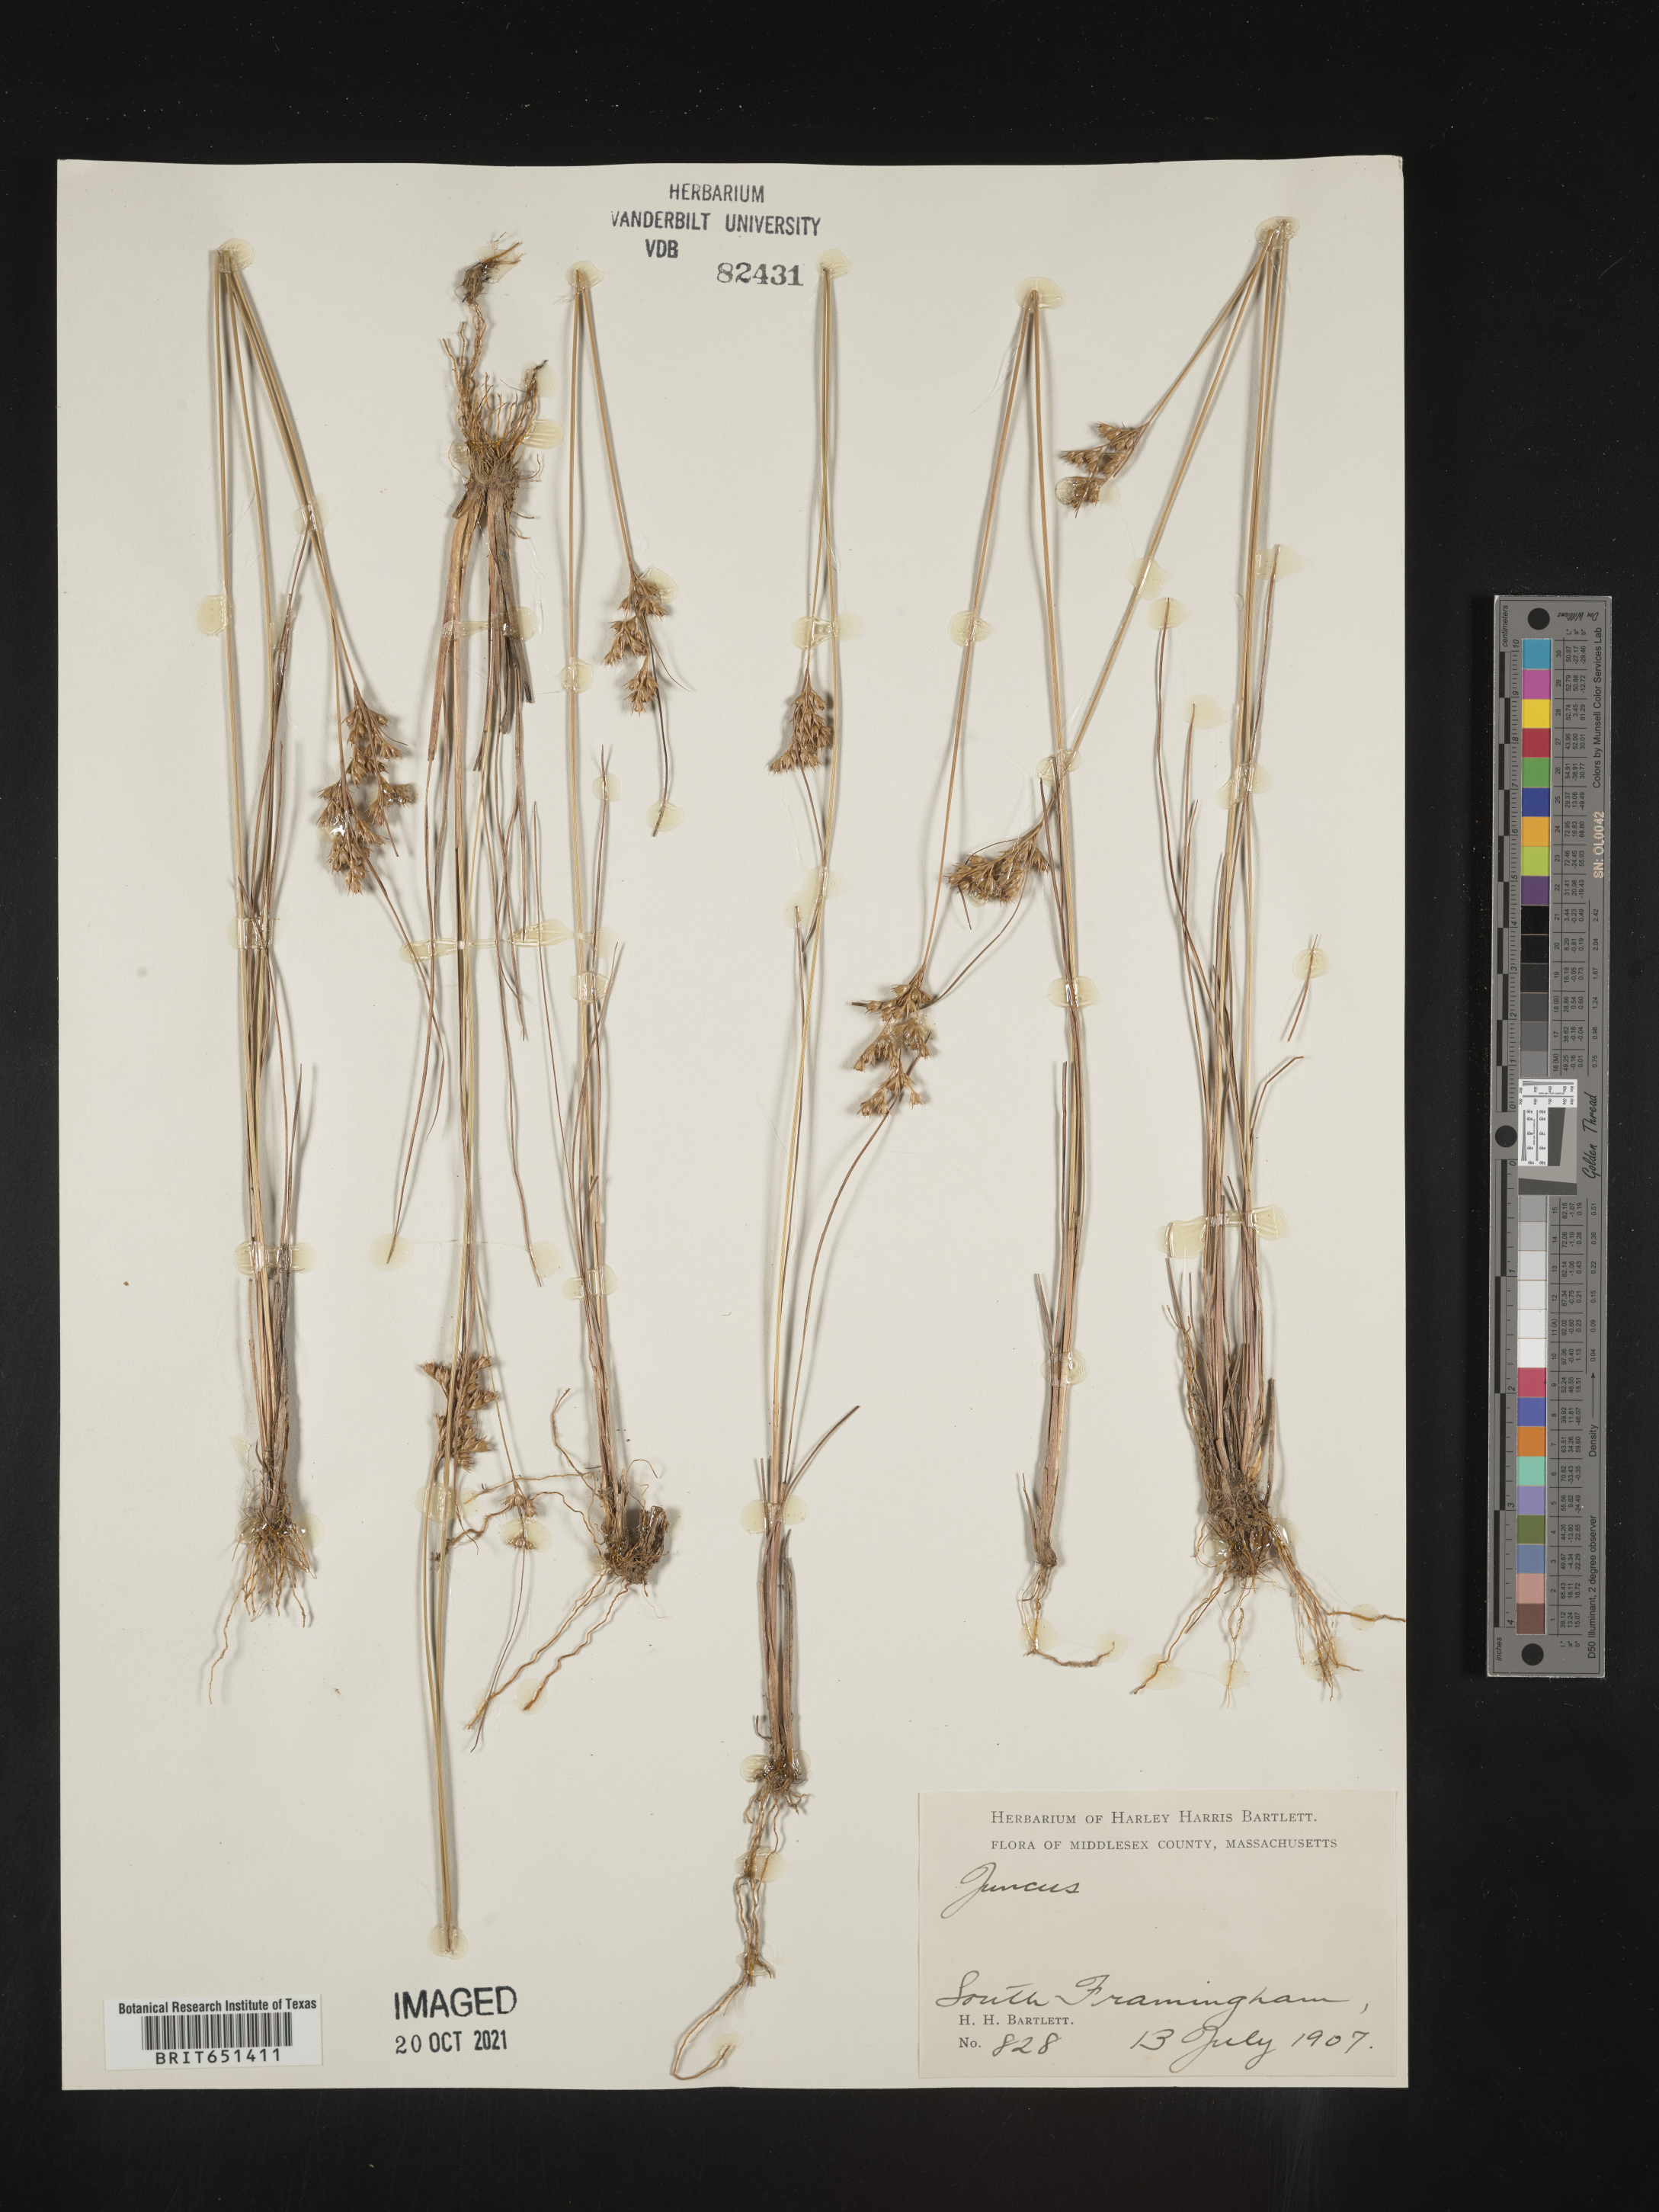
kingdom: Plantae
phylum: Tracheophyta
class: Liliopsida
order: Poales
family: Juncaceae
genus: Juncus
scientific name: Juncus
